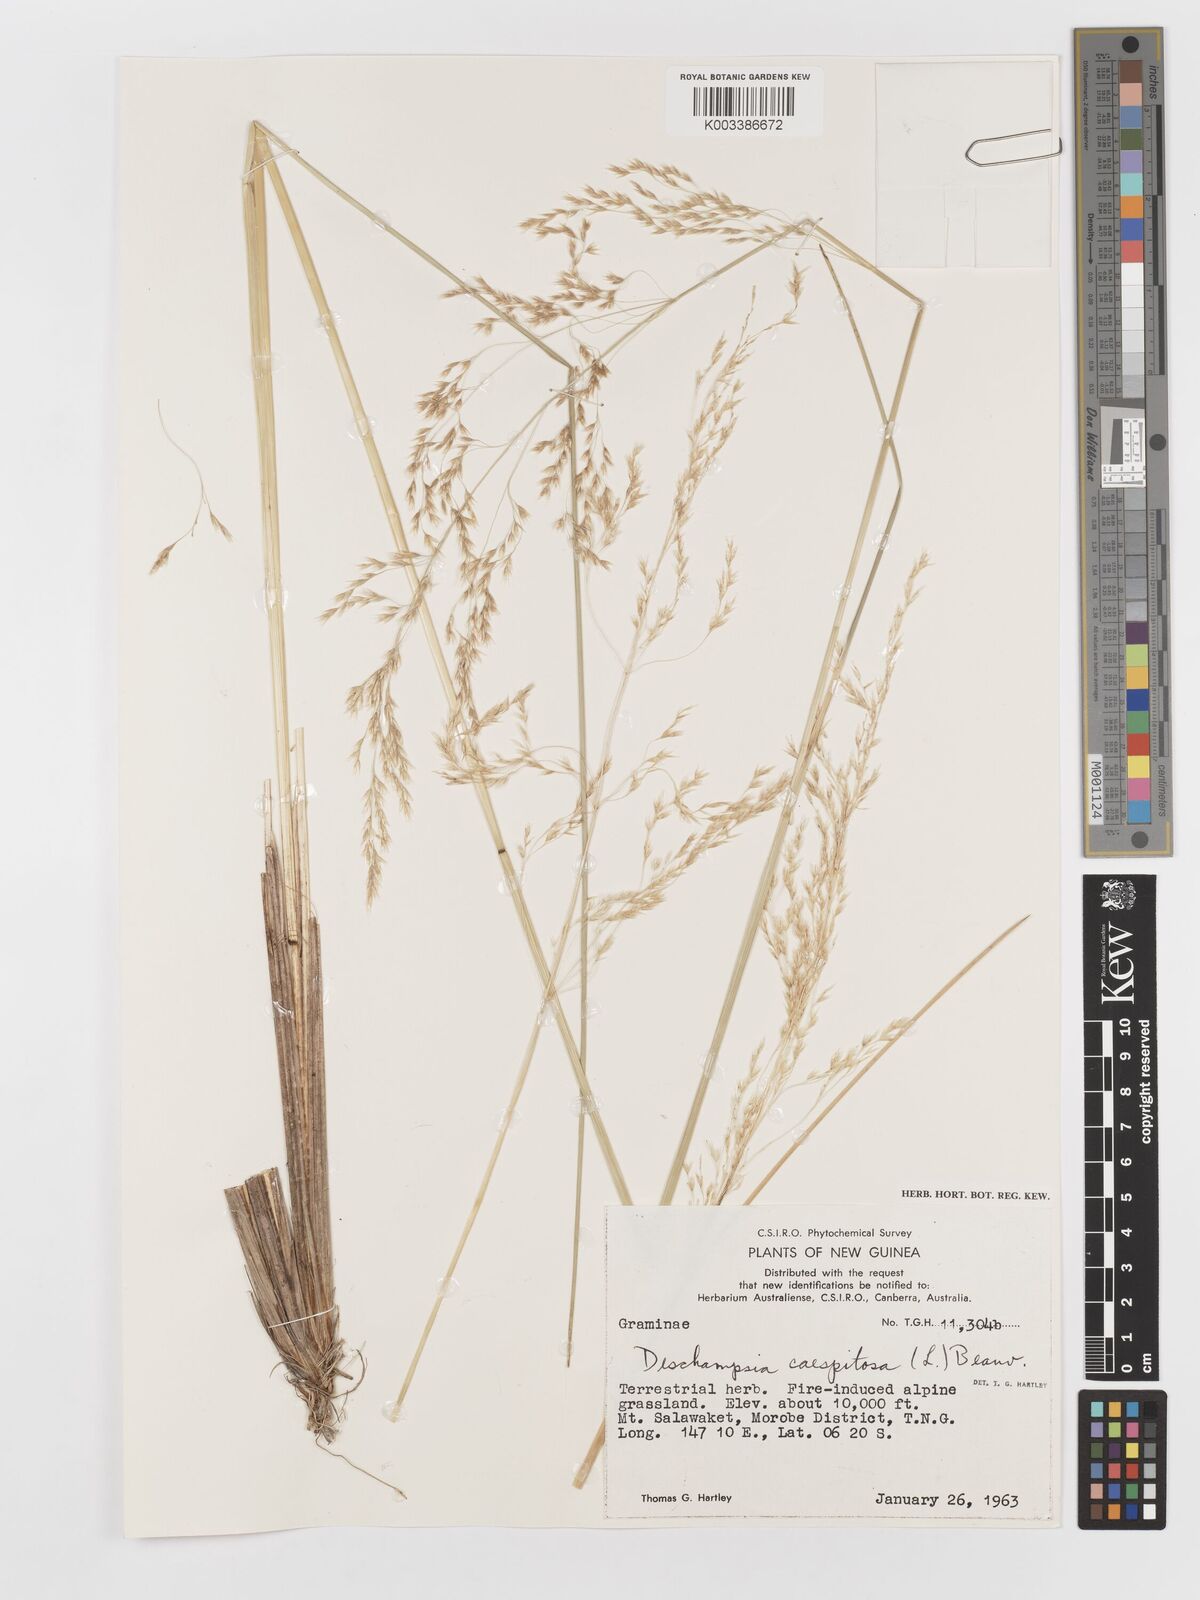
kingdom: Plantae
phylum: Tracheophyta
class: Liliopsida
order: Poales
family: Poaceae
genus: Deschampsia
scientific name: Deschampsia klossii
